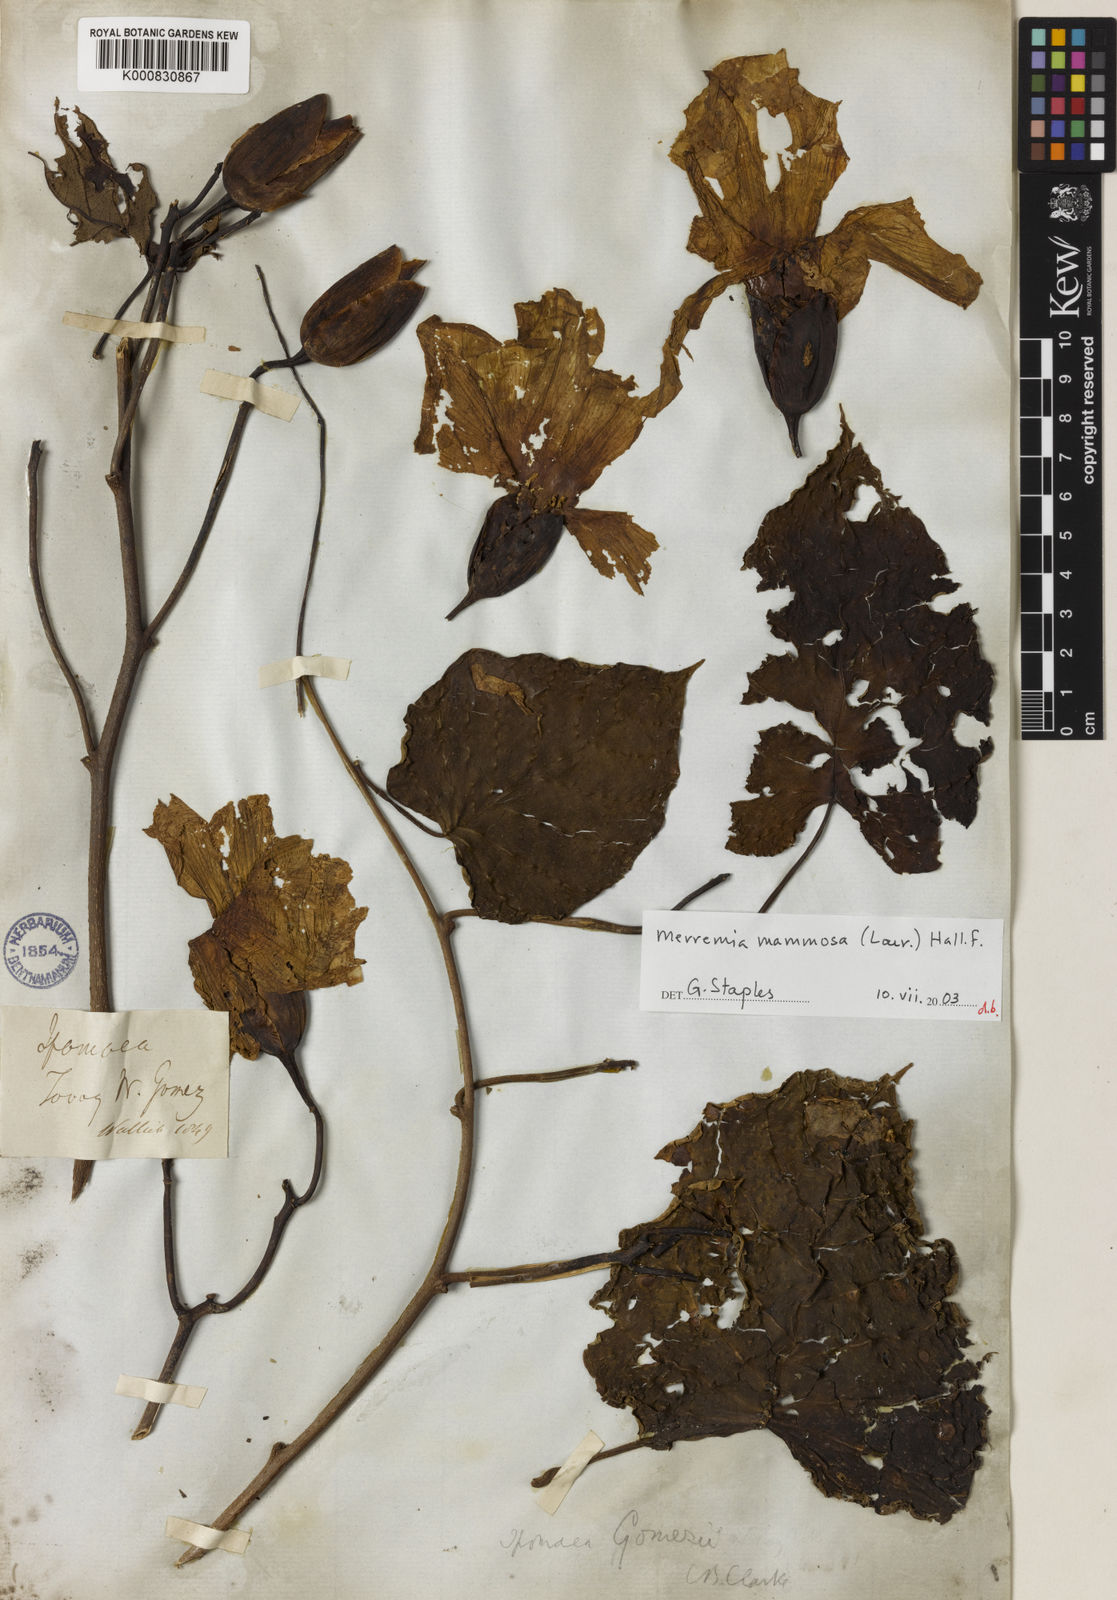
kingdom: Plantae
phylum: Tracheophyta
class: Magnoliopsida
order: Solanales
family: Convolvulaceae
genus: Decalobanthus
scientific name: Decalobanthus mammosus
